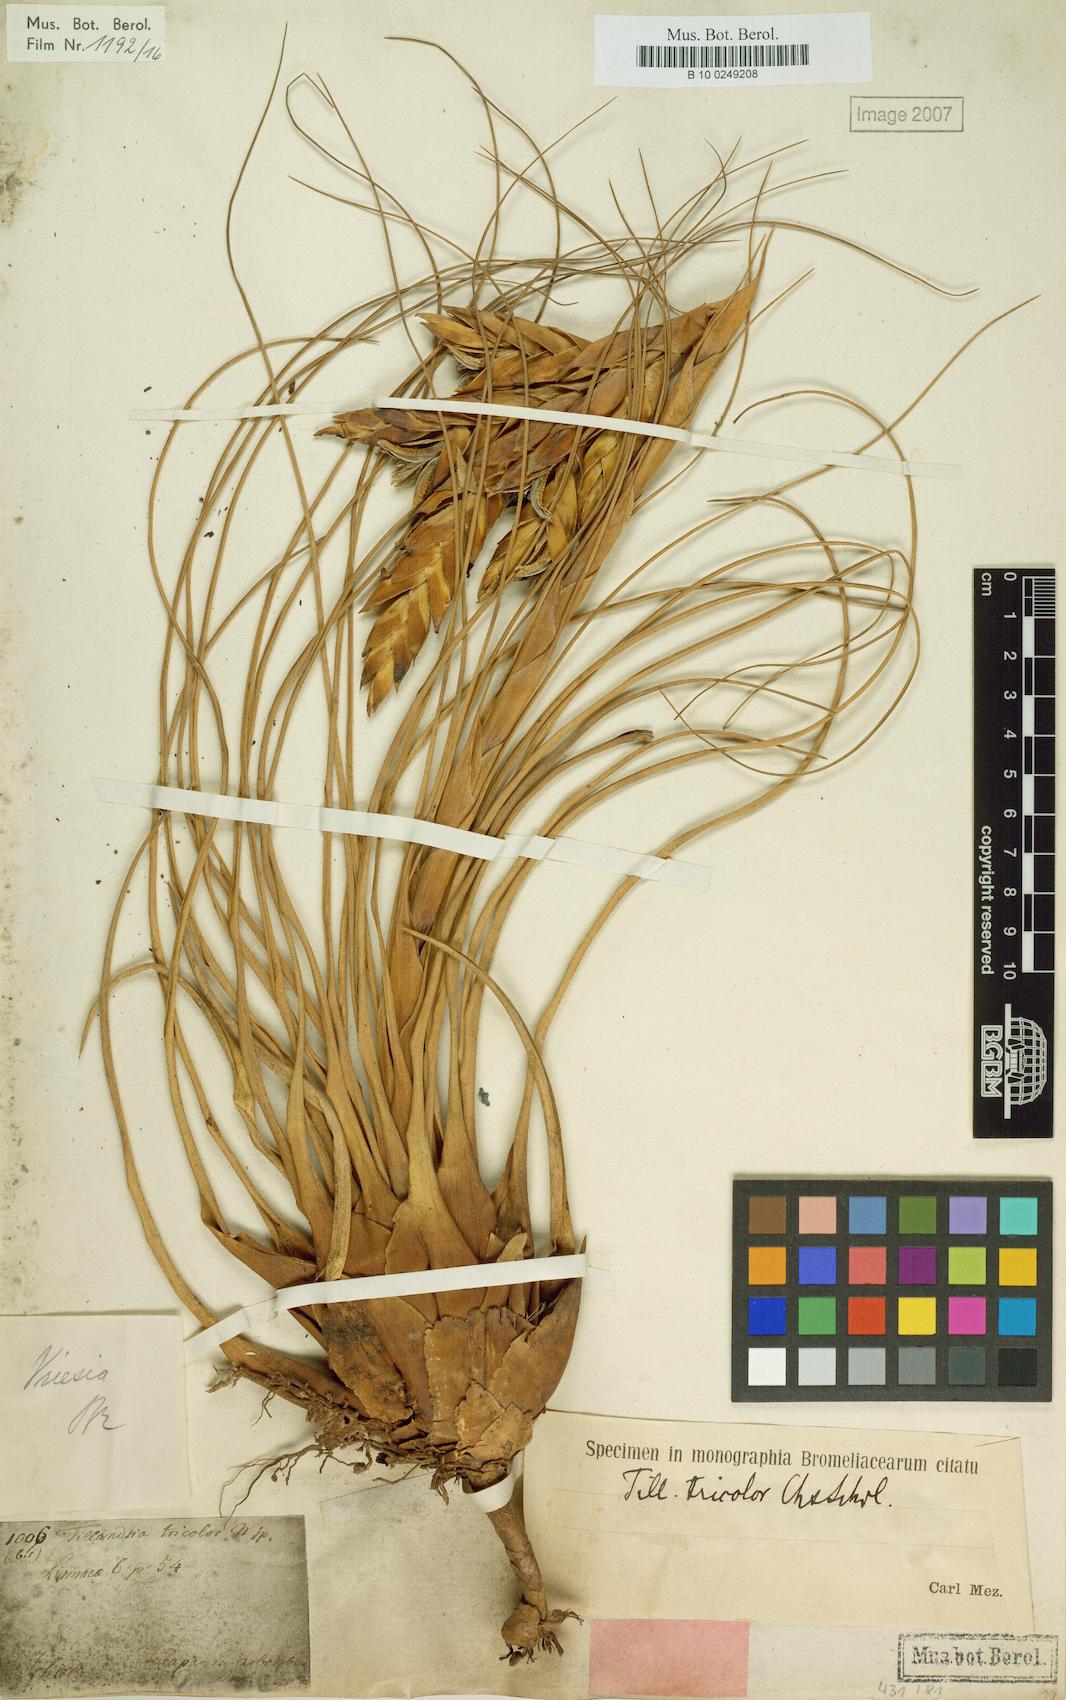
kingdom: Plantae
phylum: Tracheophyta
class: Liliopsida
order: Poales
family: Bromeliaceae
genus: Tillandsia
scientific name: Tillandsia tricolor
